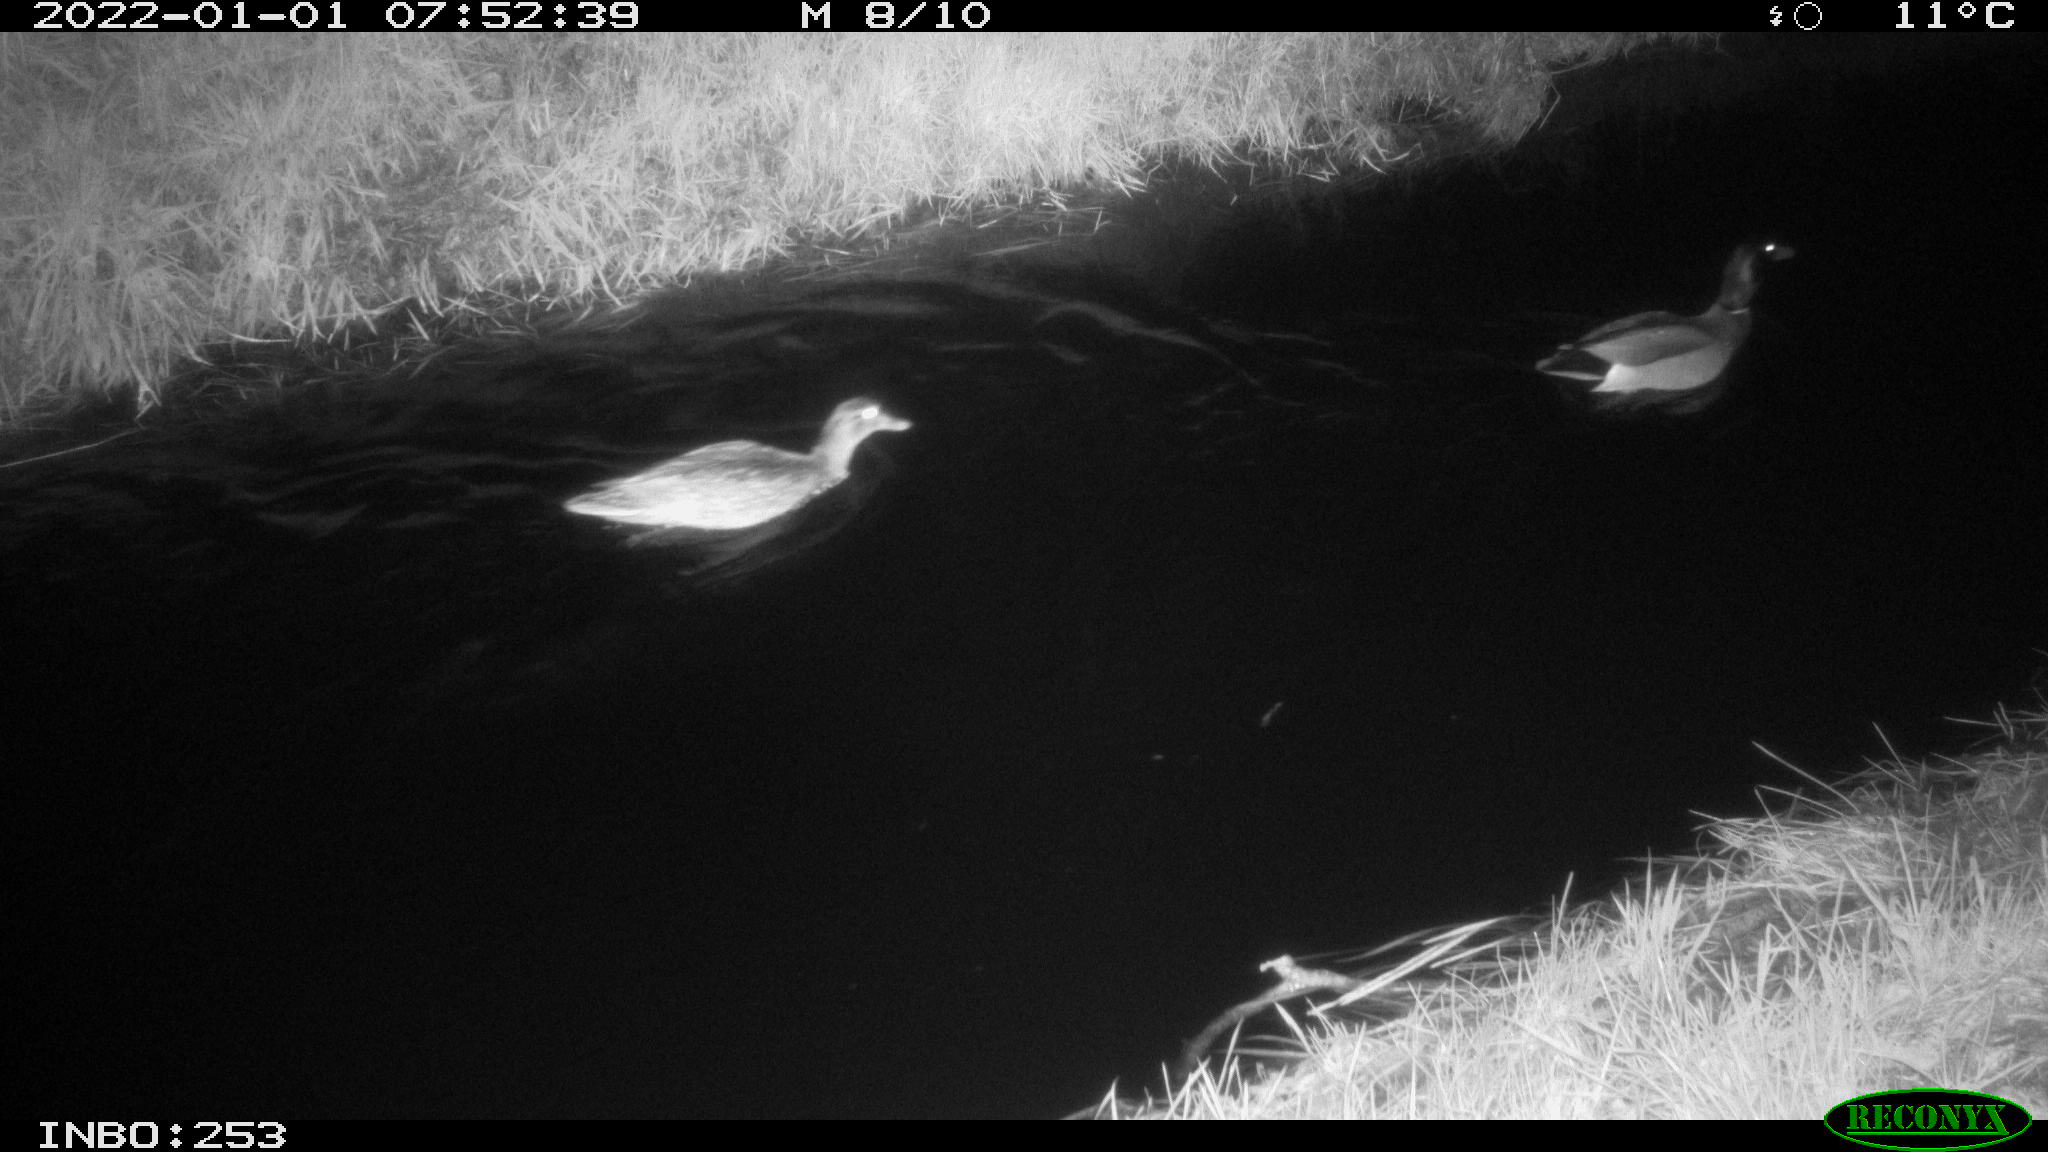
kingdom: Animalia
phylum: Chordata
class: Aves
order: Anseriformes
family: Anatidae
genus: Anas
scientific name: Anas
